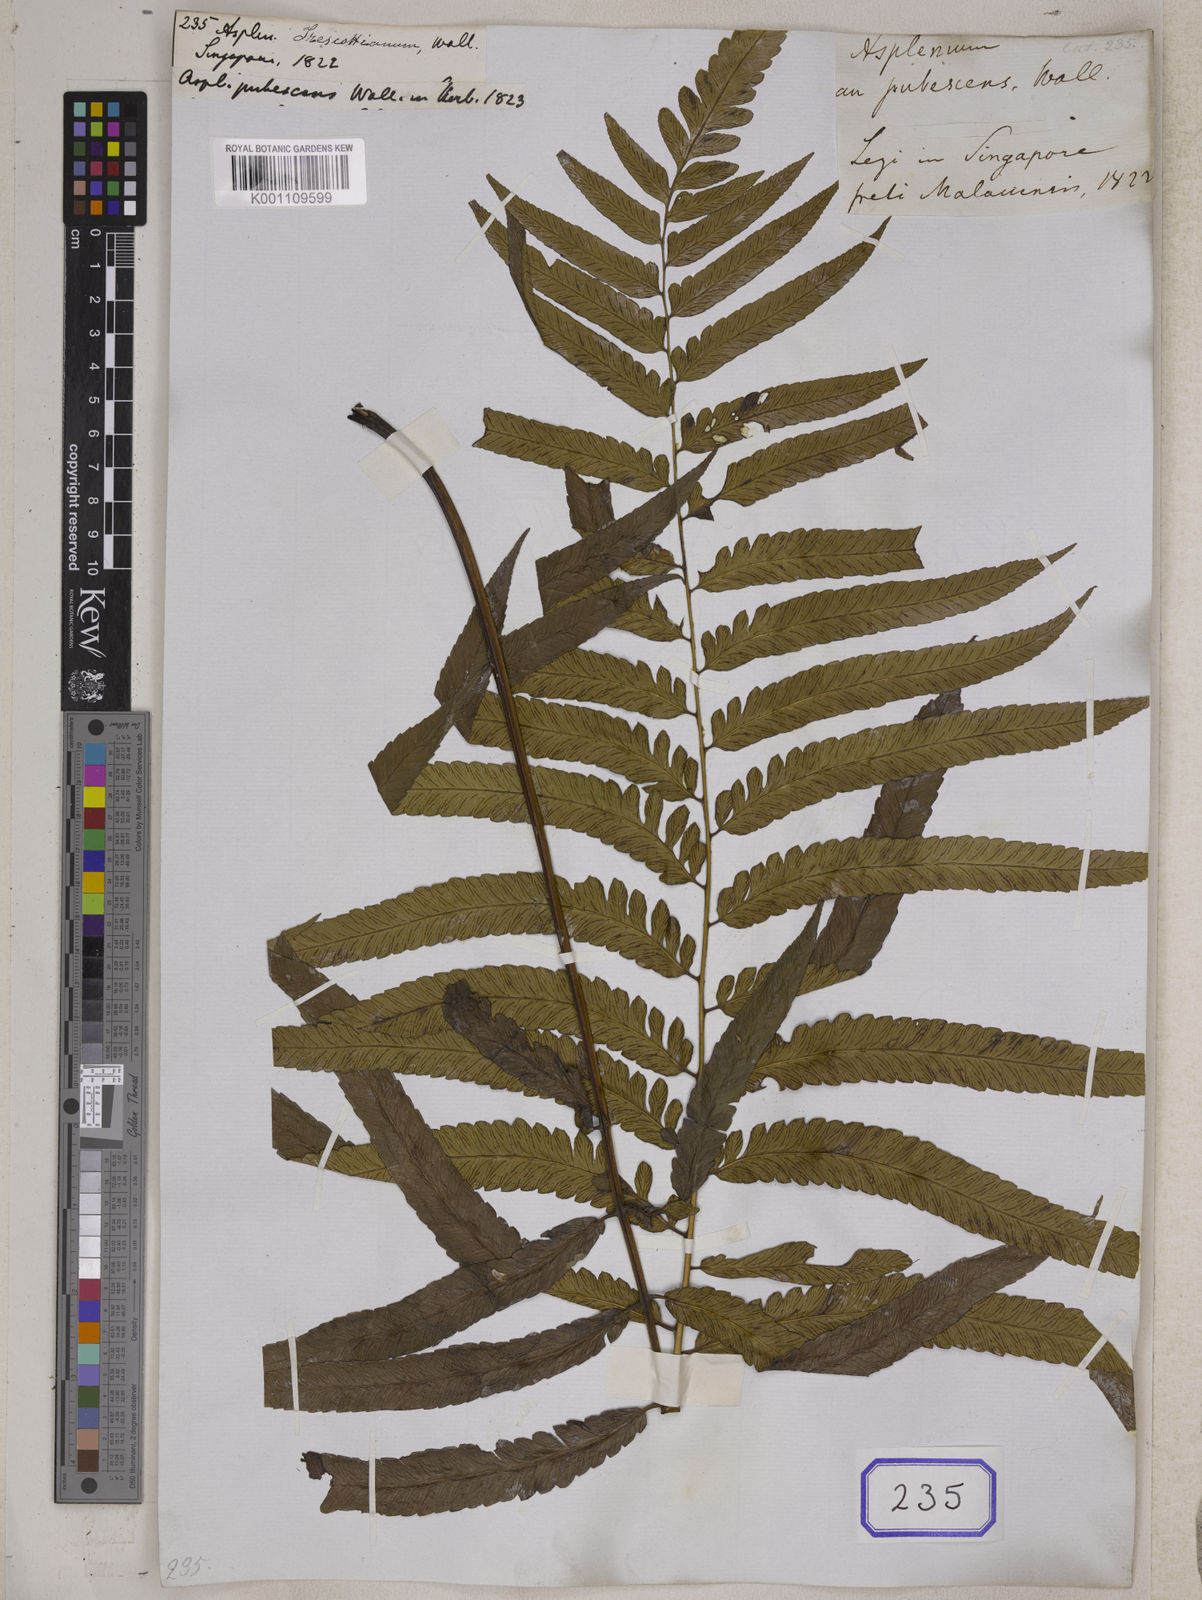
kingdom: Plantae
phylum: Tracheophyta
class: Polypodiopsida
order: Polypodiales
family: Aspleniaceae
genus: Asplenium
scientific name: Asplenium
